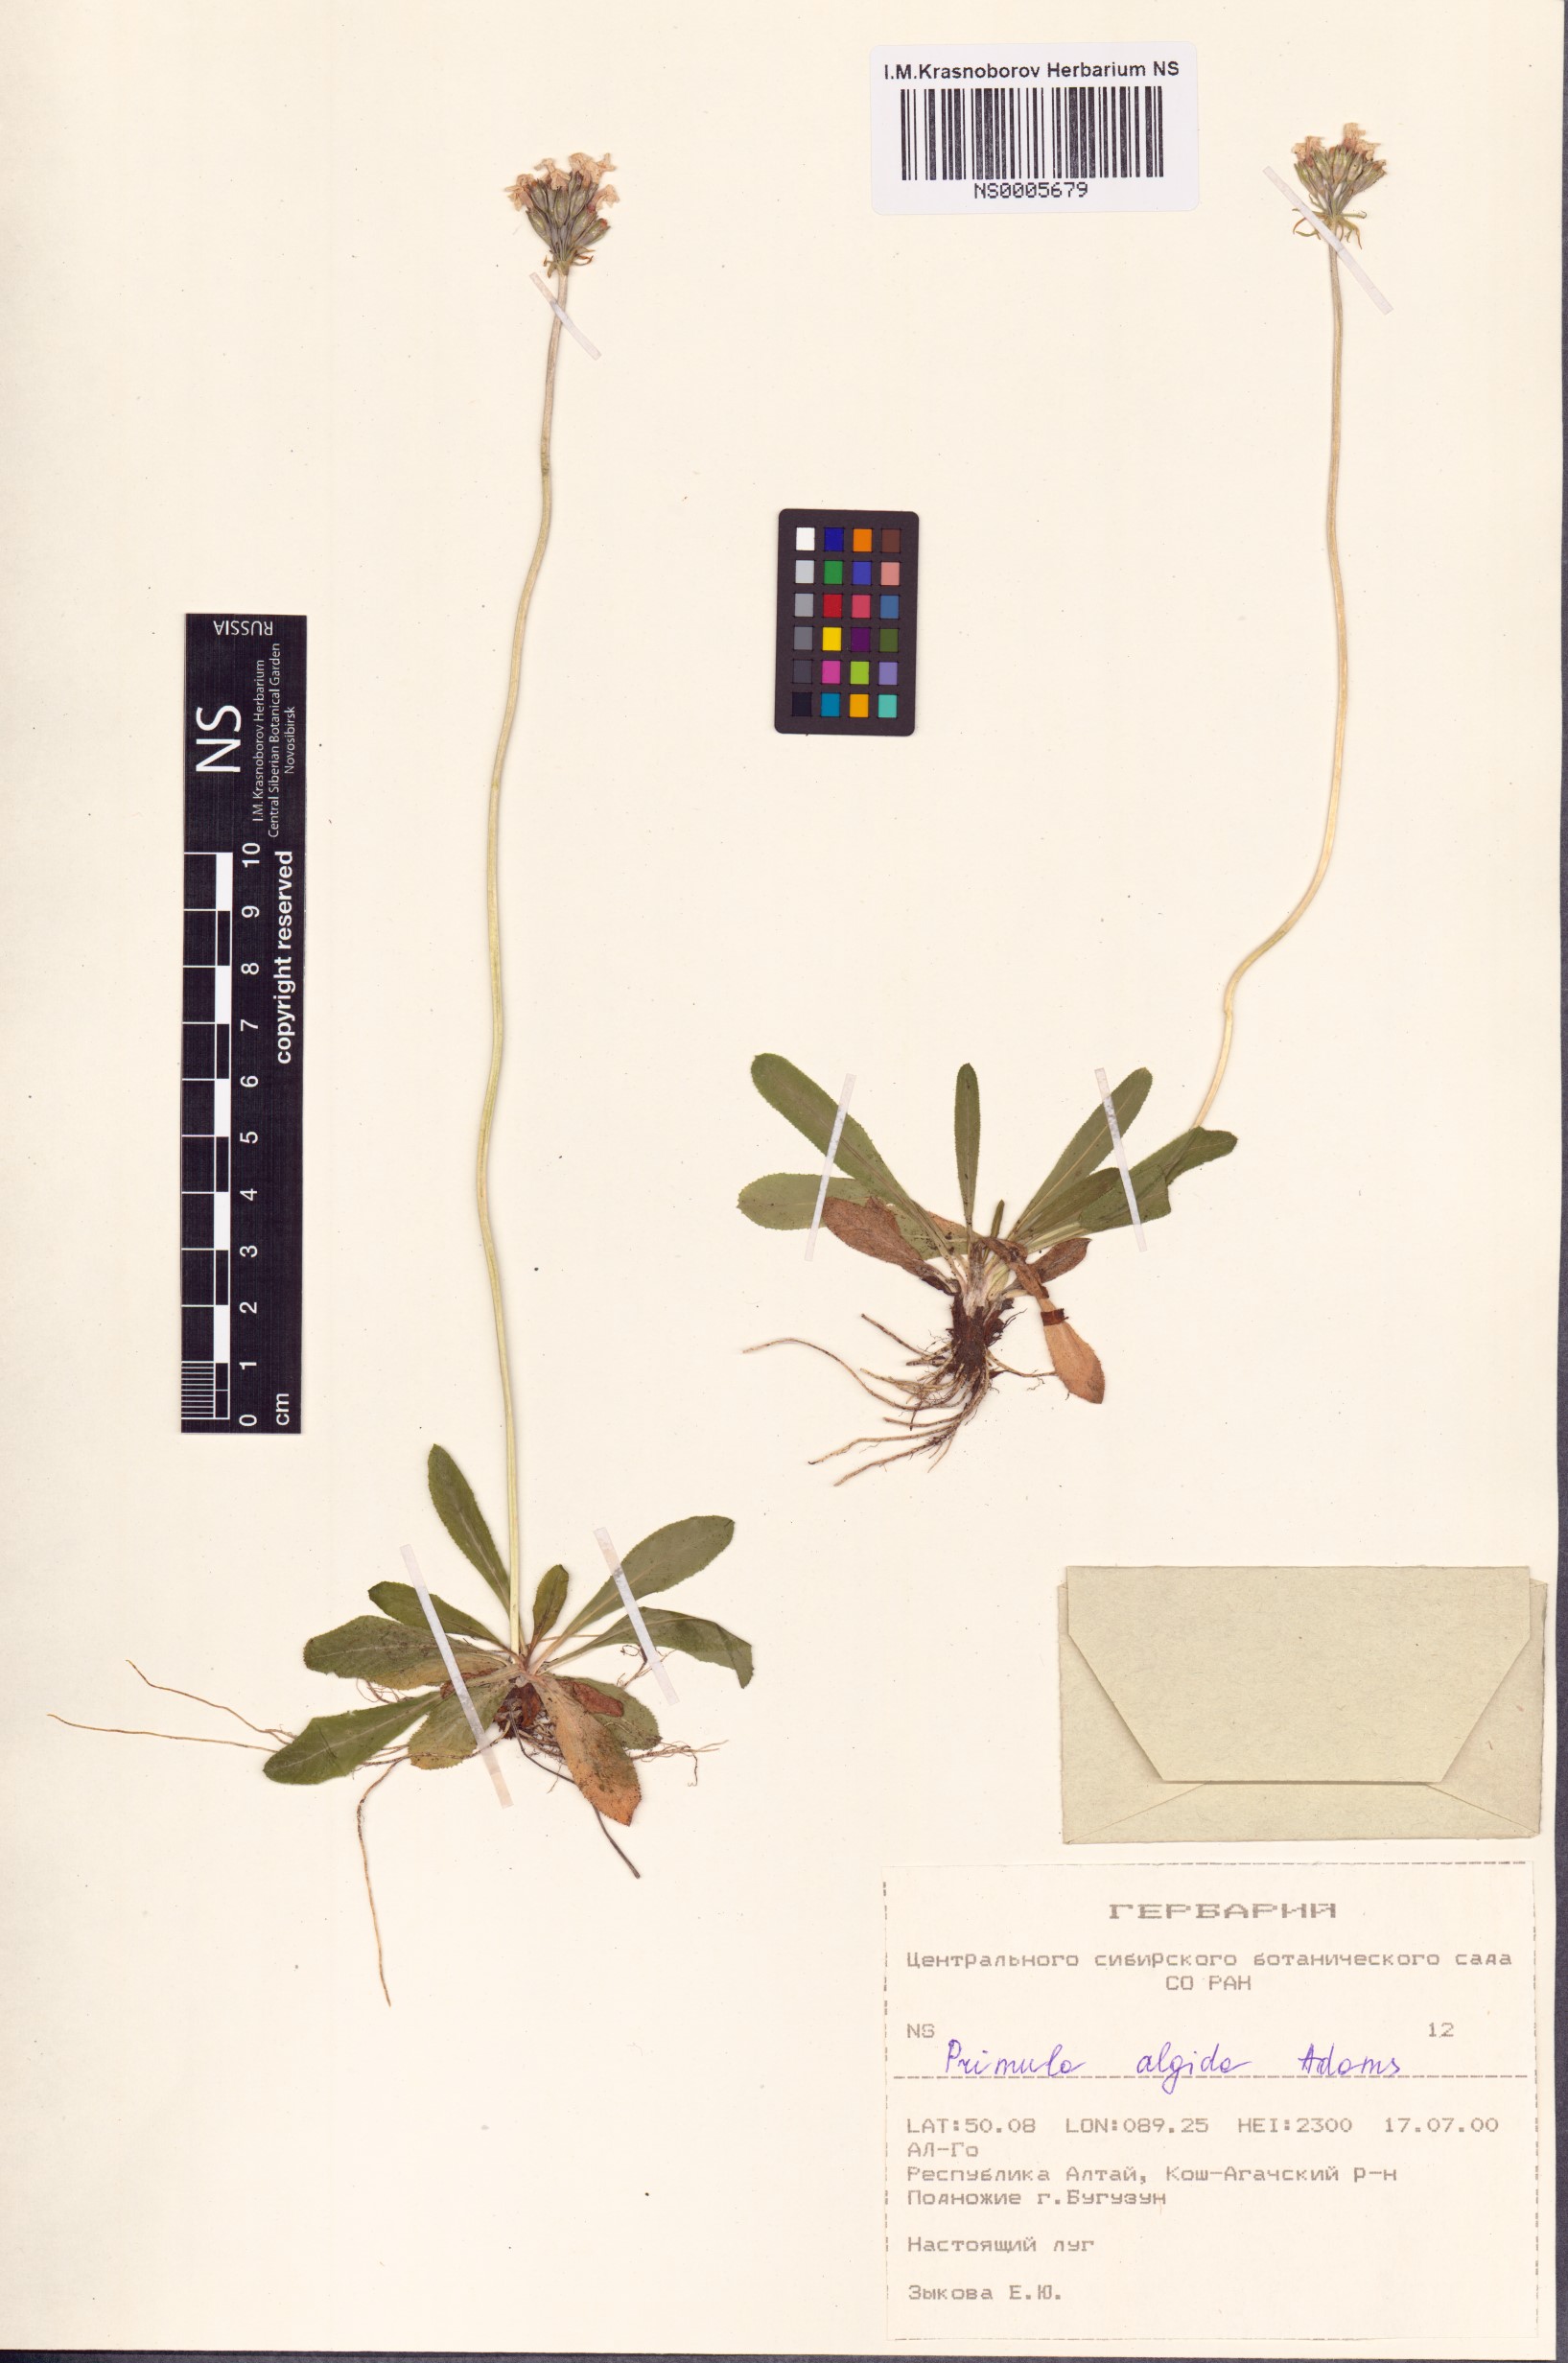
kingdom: Plantae
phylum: Tracheophyta
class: Magnoliopsida
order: Ericales
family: Primulaceae
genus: Primula
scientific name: Primula algida
